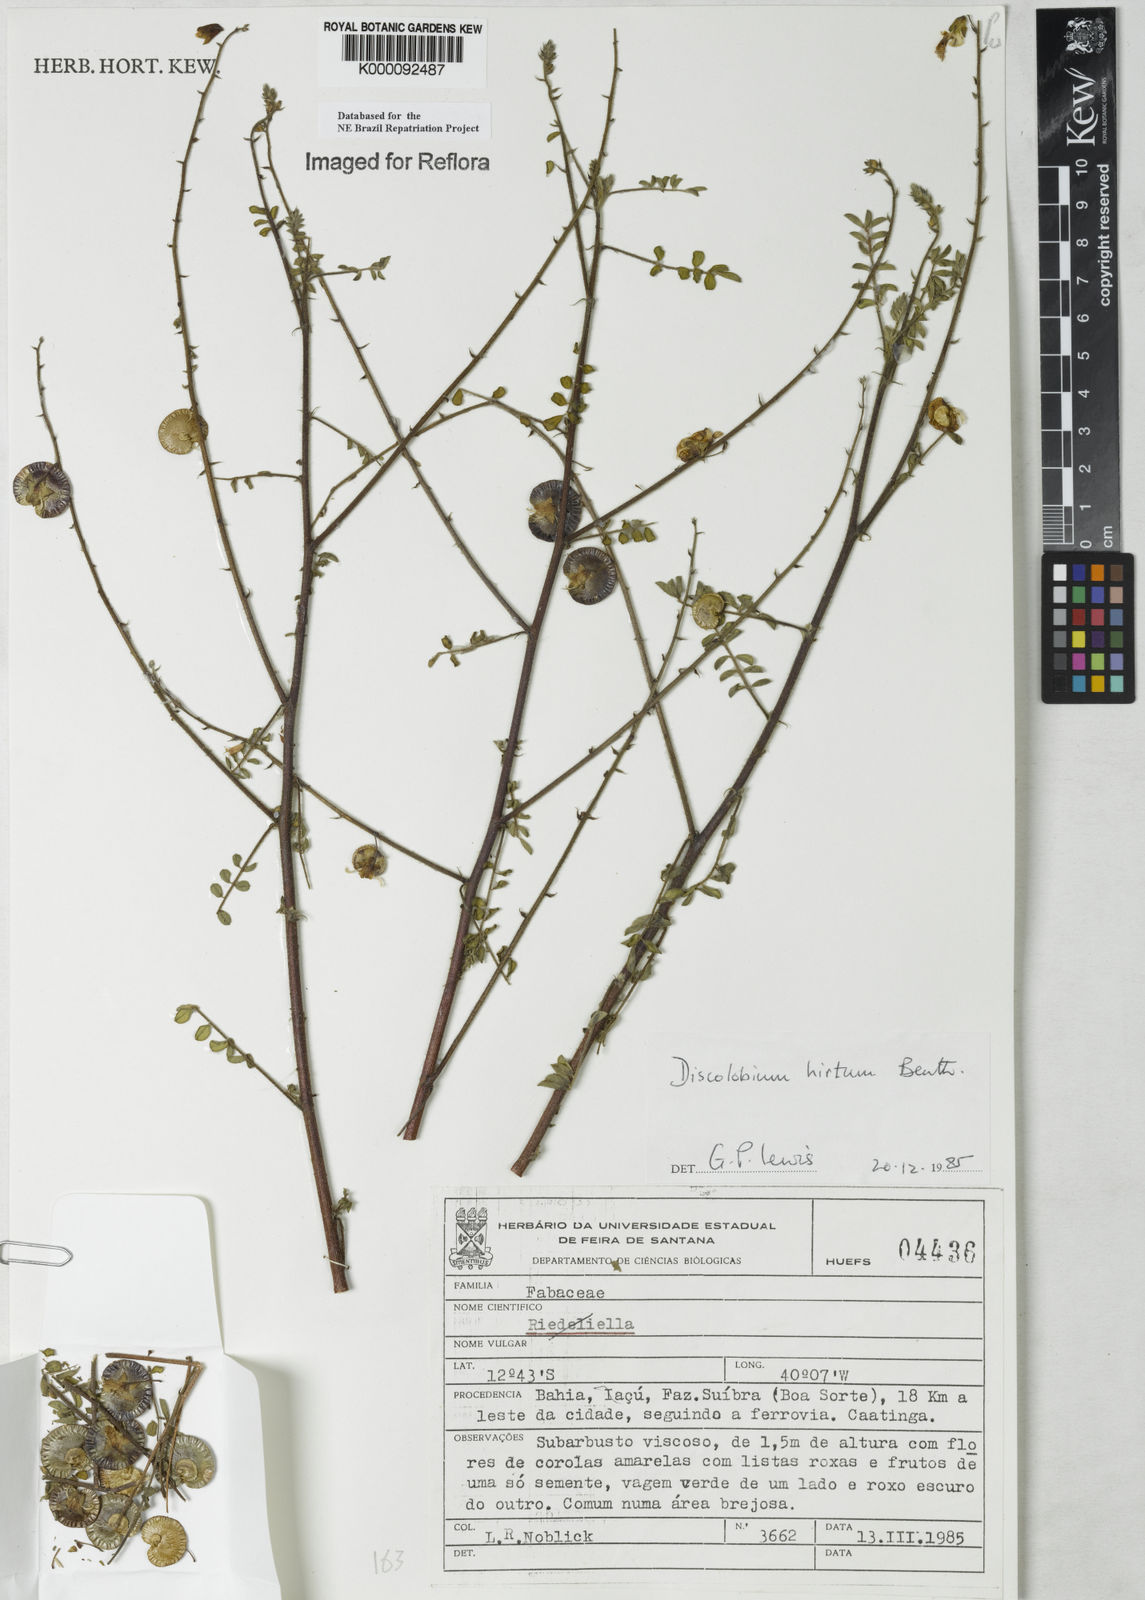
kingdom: Plantae
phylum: Tracheophyta
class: Magnoliopsida
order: Fabales
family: Fabaceae
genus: Discolobium
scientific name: Discolobium hirtum
